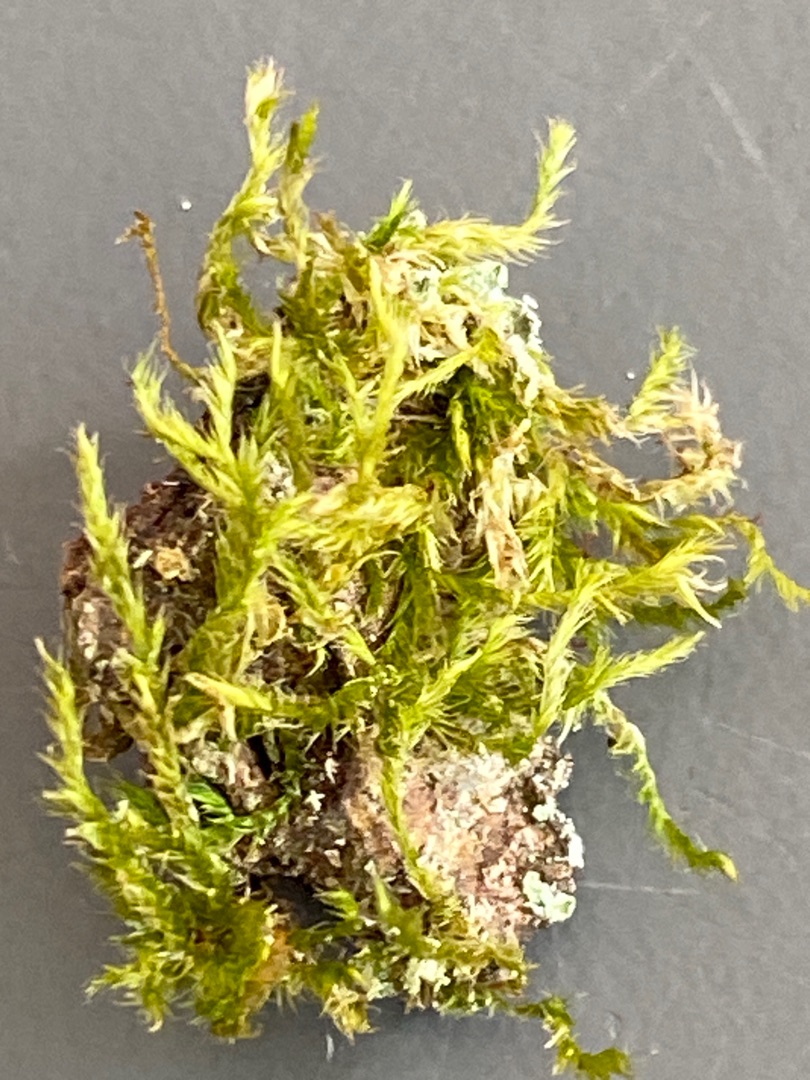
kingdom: Plantae
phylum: Bryophyta
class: Bryopsida
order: Hypnales
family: Hypnaceae
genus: Hypnum
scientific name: Hypnum
